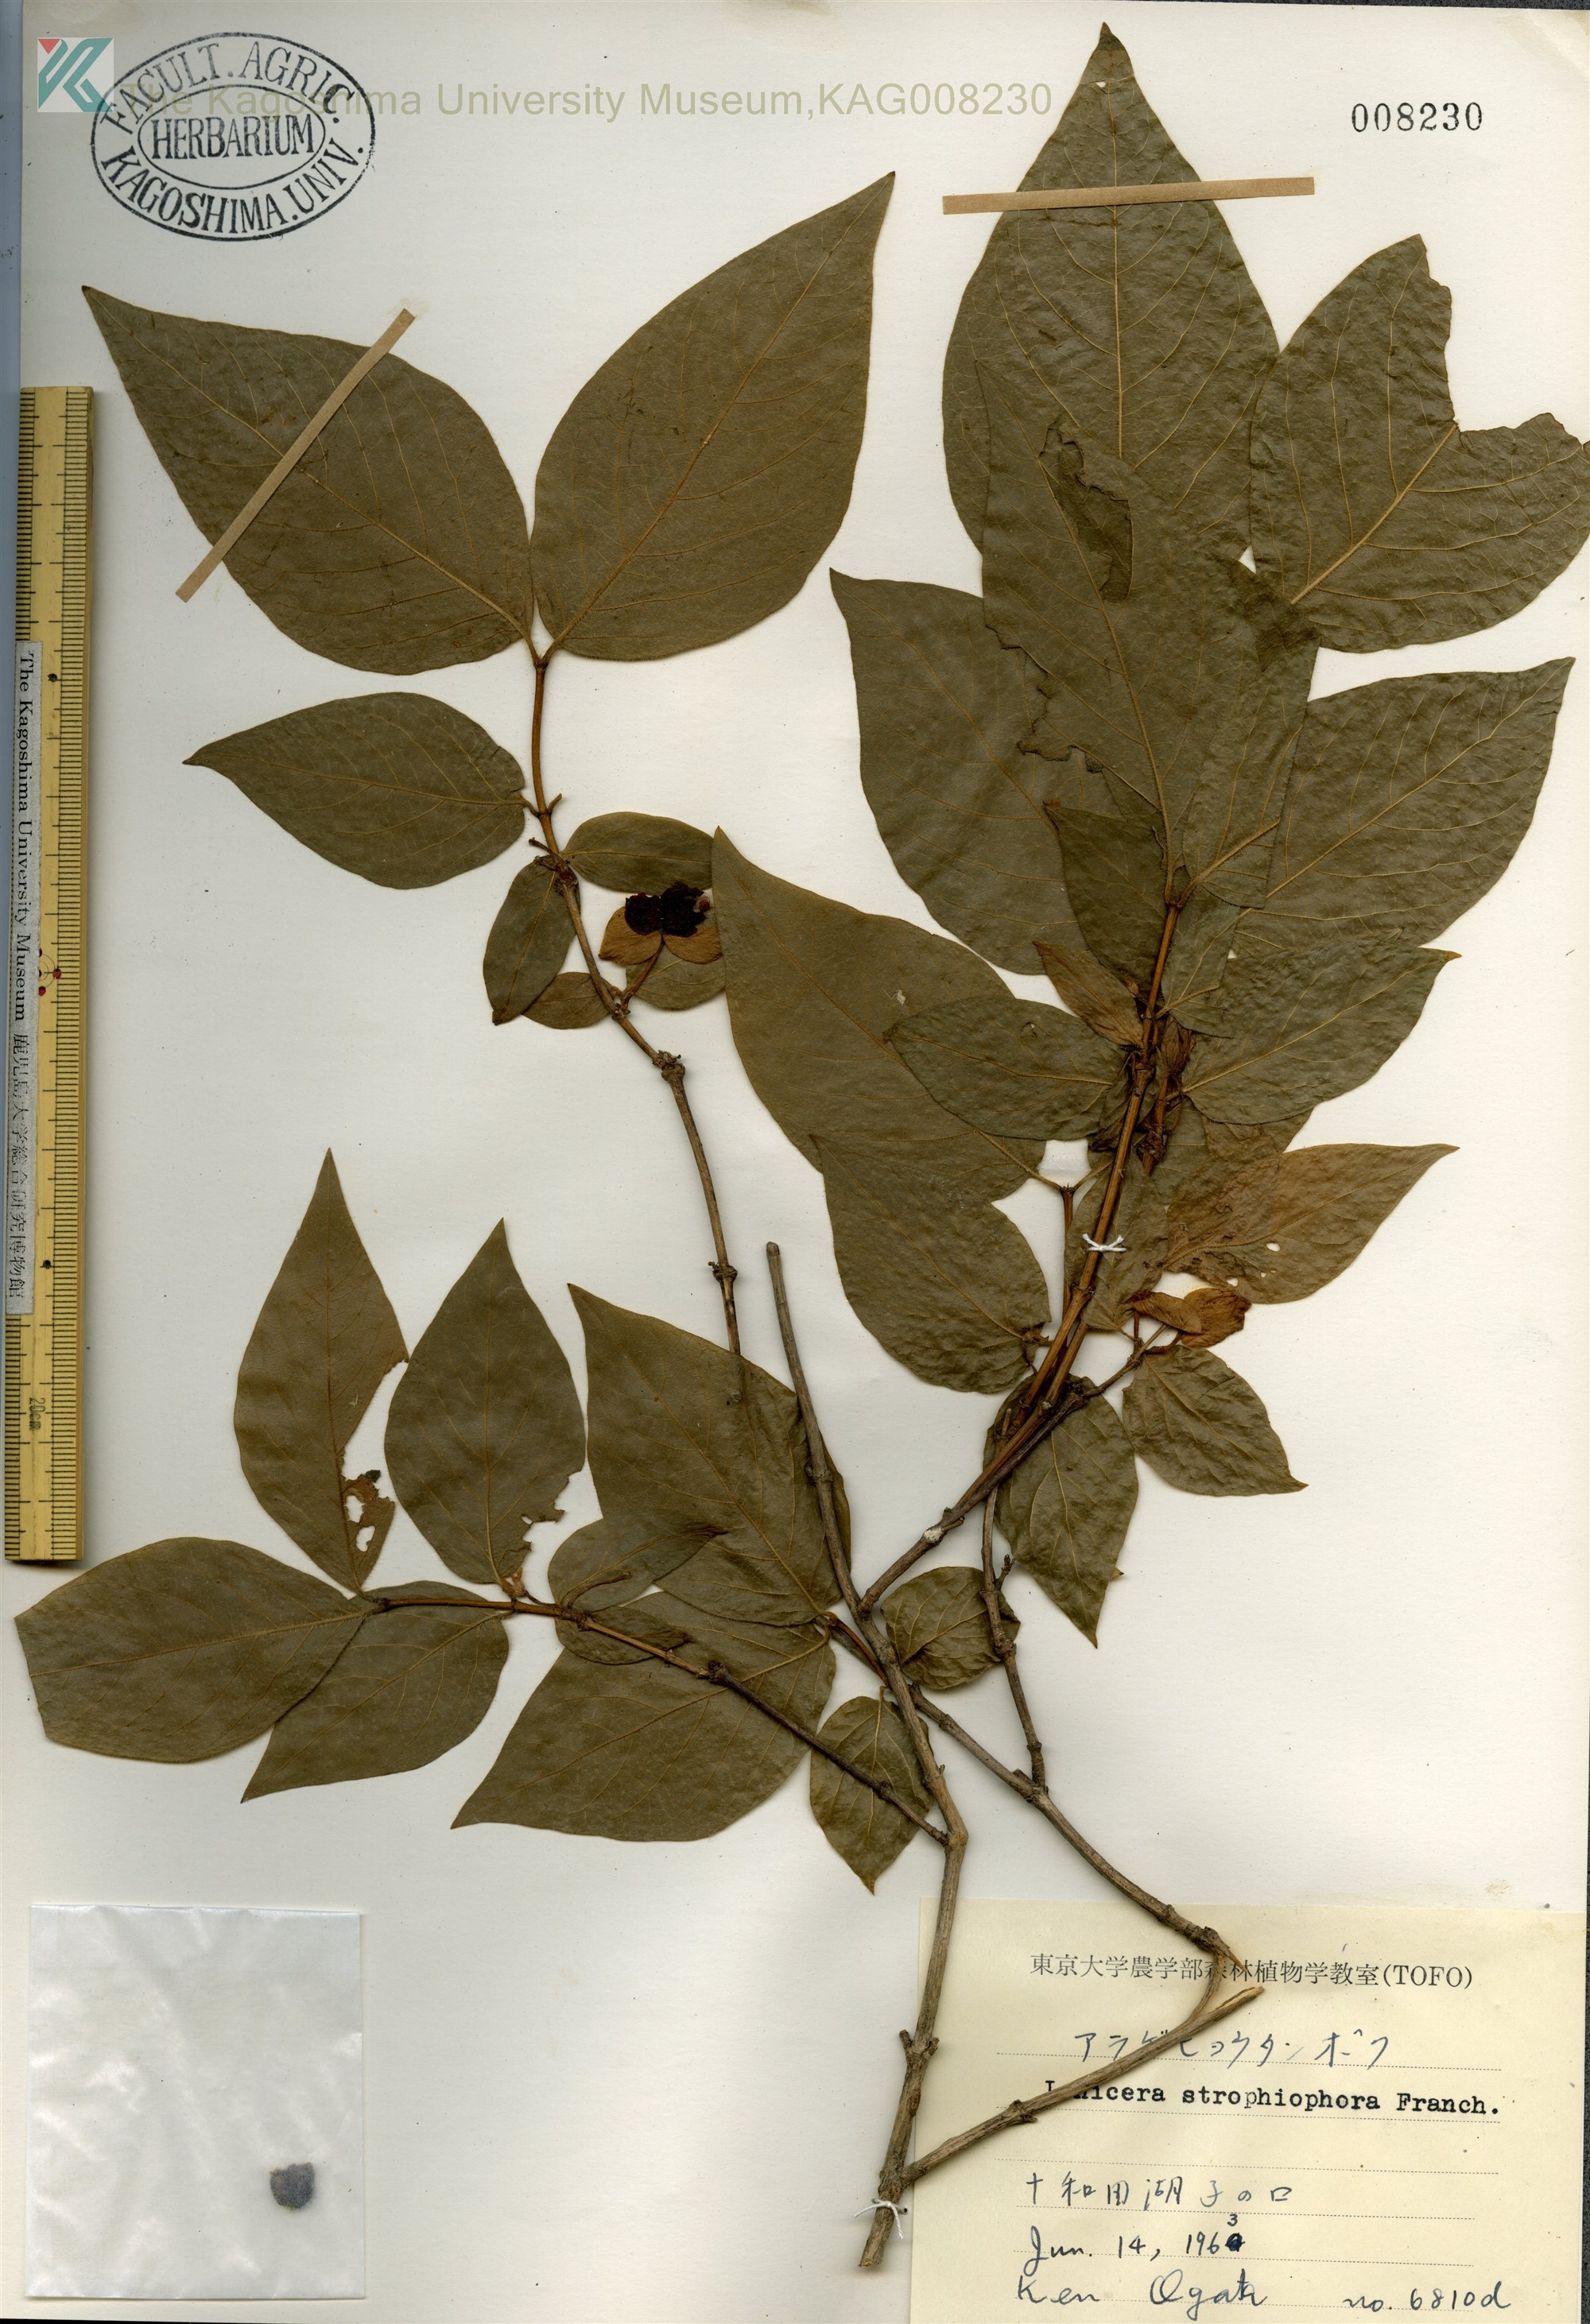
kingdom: Plantae
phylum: Tracheophyta
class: Magnoliopsida
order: Dipsacales
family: Caprifoliaceae
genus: Lonicera
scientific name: Lonicera strophiophora
